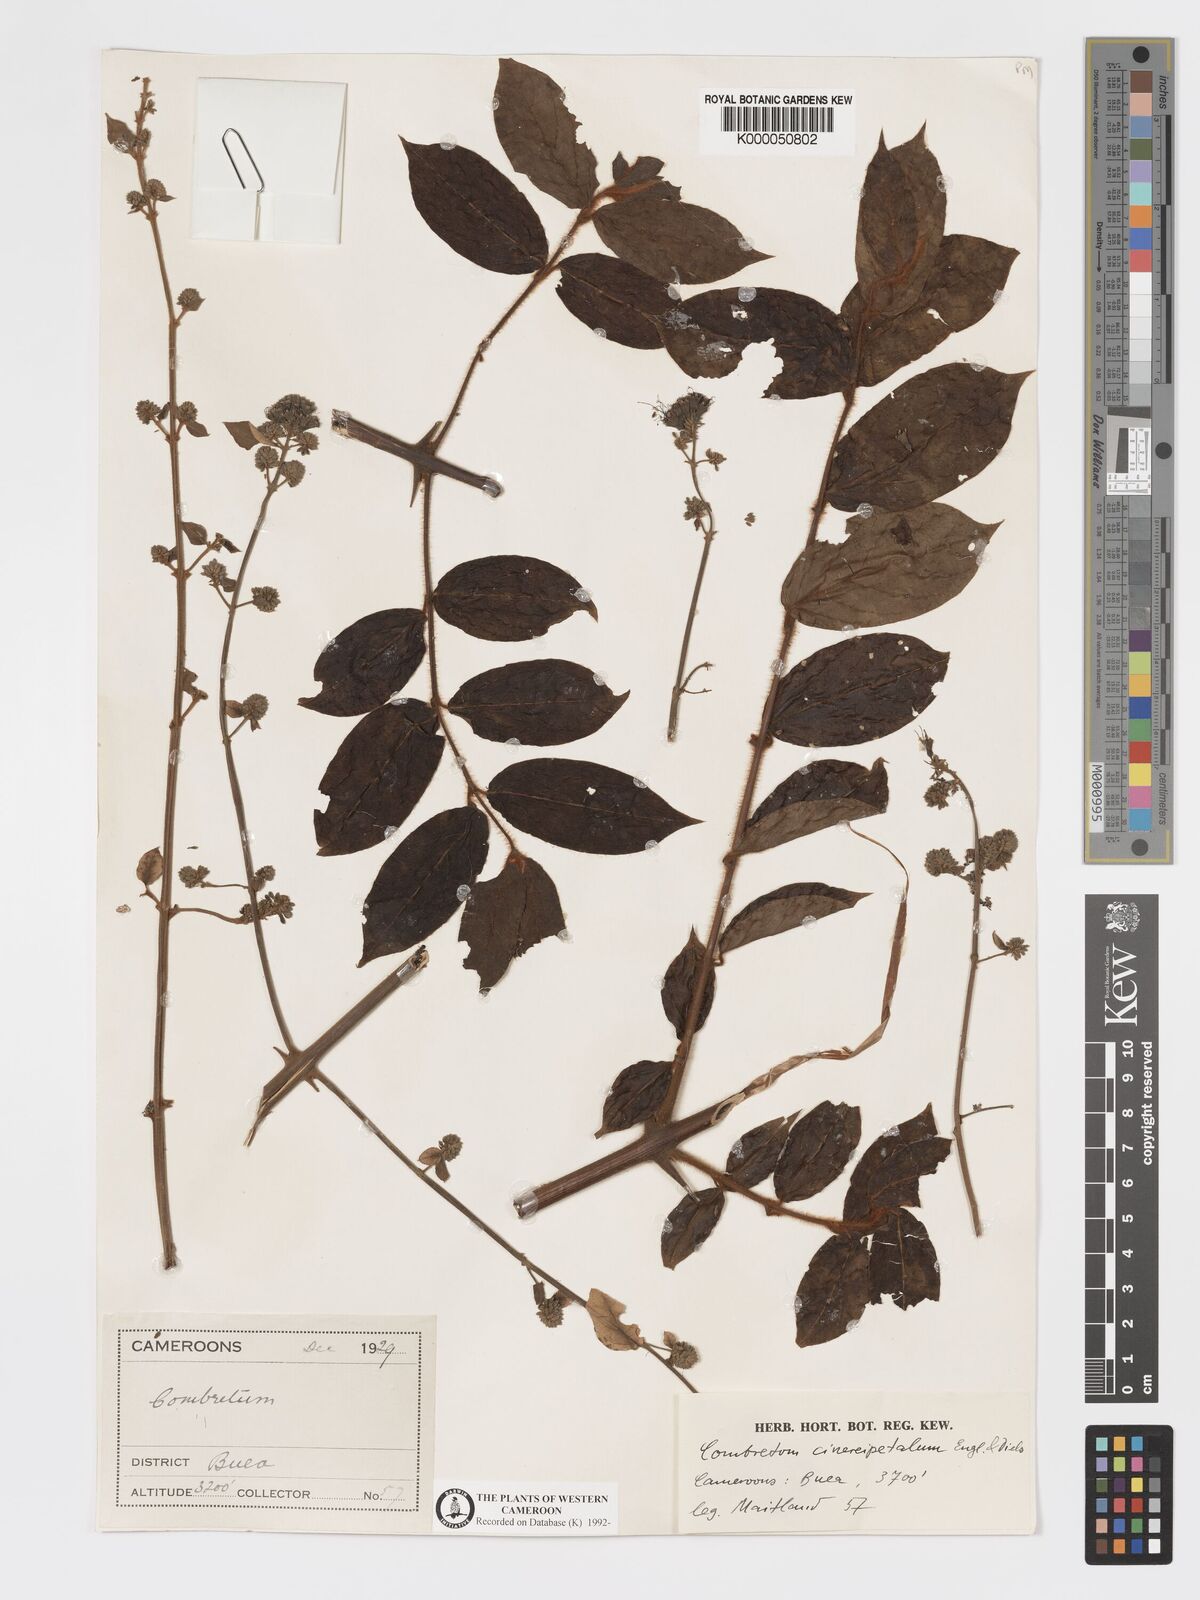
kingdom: Plantae
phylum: Tracheophyta
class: Magnoliopsida
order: Myrtales
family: Combretaceae
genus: Combretum
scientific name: Combretum
